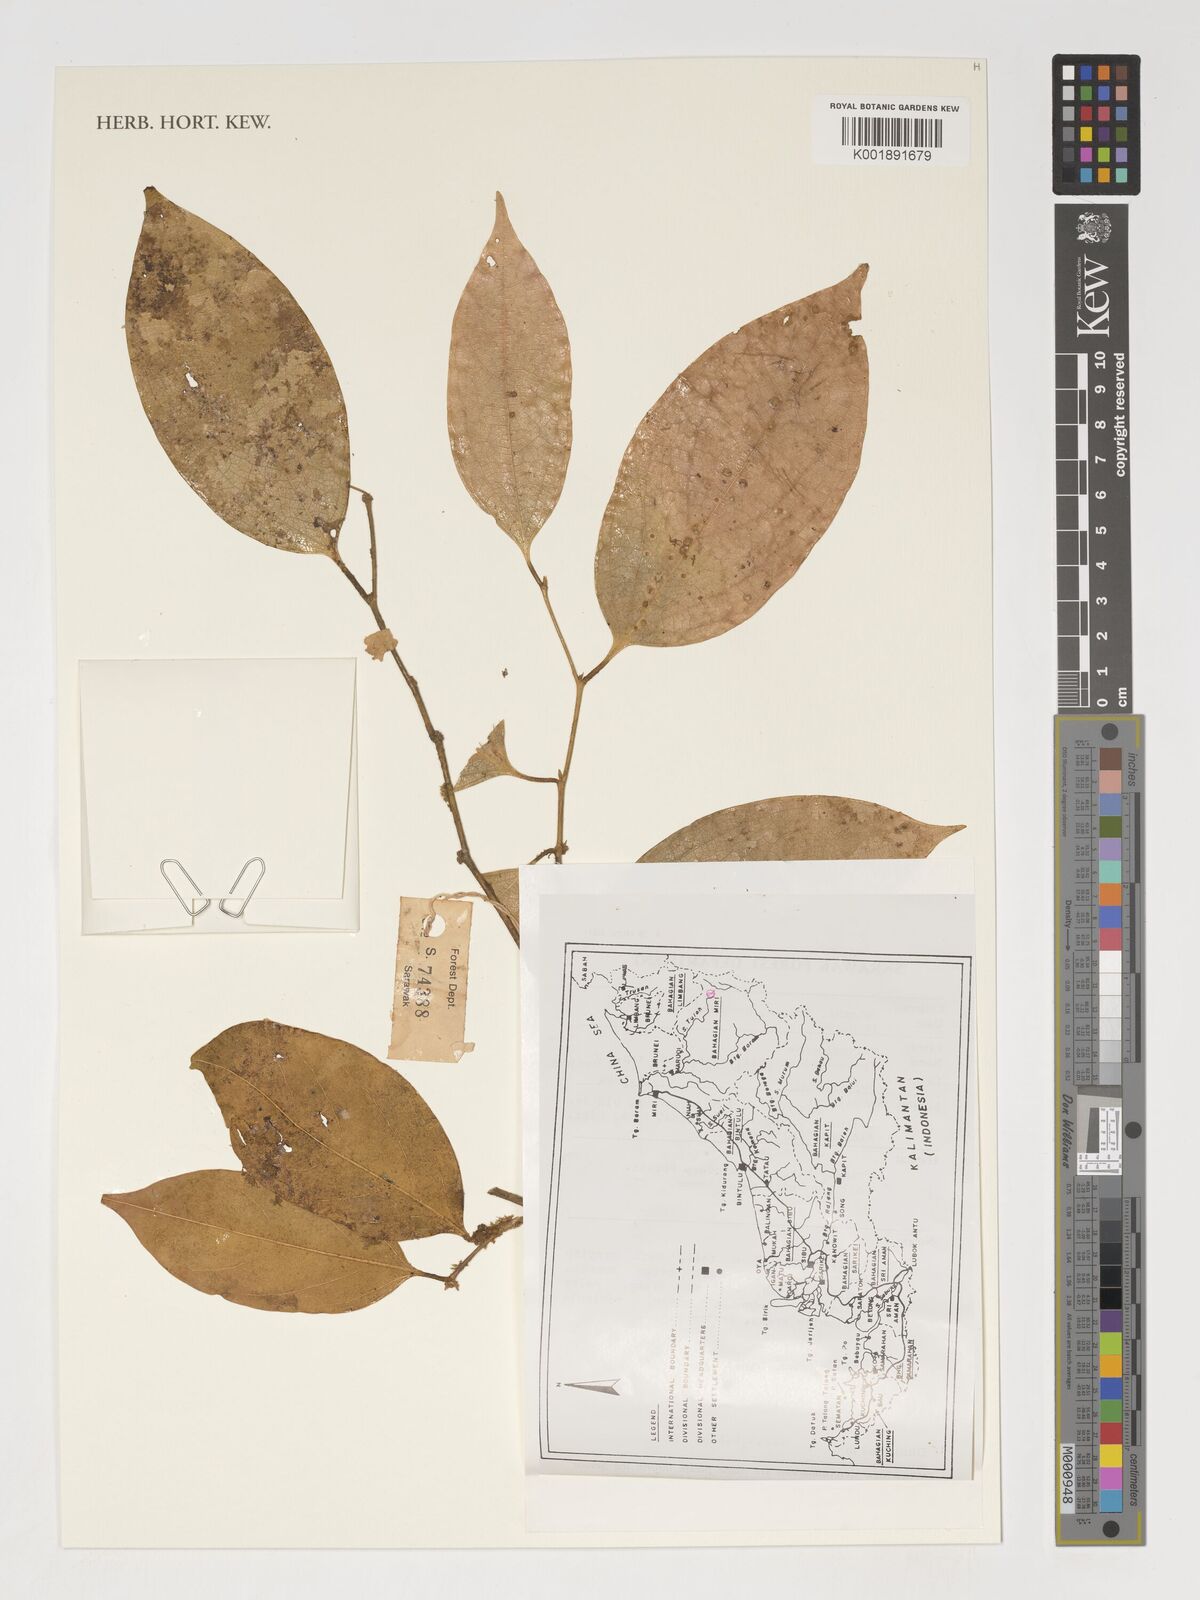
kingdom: Plantae
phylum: Tracheophyta
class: Magnoliopsida
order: Fabales
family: Polygalaceae
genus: Xanthophyllum
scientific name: Xanthophyllum griffithii
